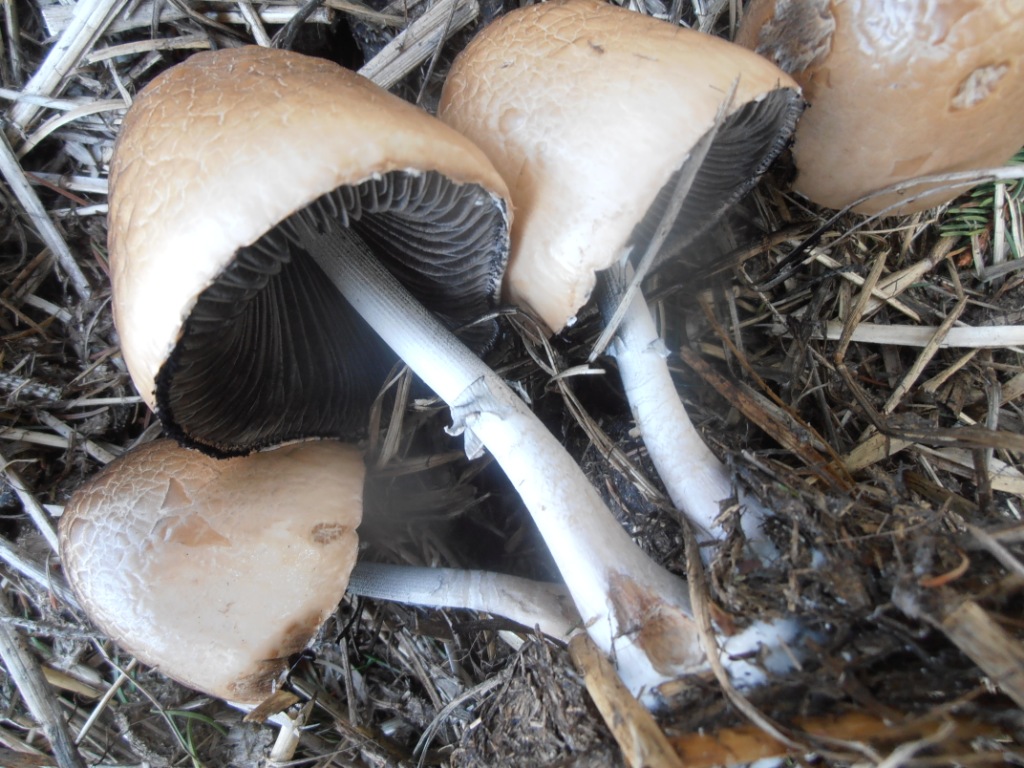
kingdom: Fungi
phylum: Basidiomycota
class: Agaricomycetes
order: Agaricales
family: Bolbitiaceae
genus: Panaeolus
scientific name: Panaeolus semiovatus
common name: ring-glanshat
